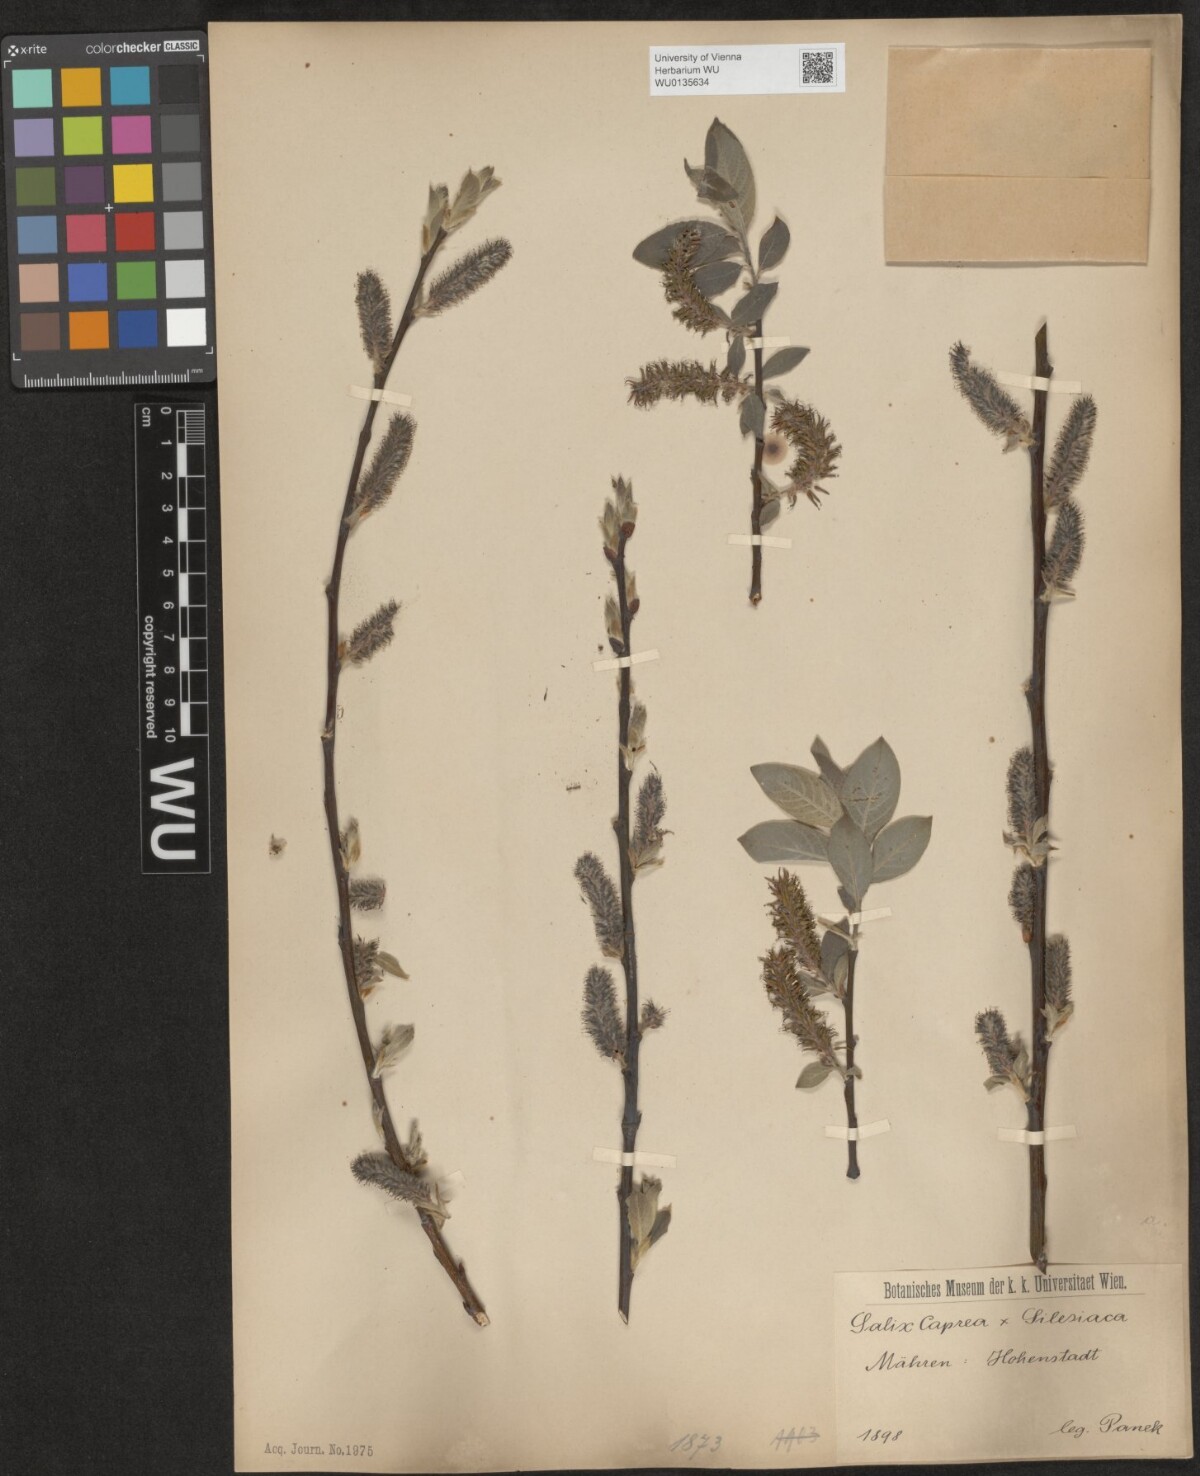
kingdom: Plantae
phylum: Tracheophyta
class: Magnoliopsida
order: Malpighiales
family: Salicaceae
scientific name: Salicaceae
